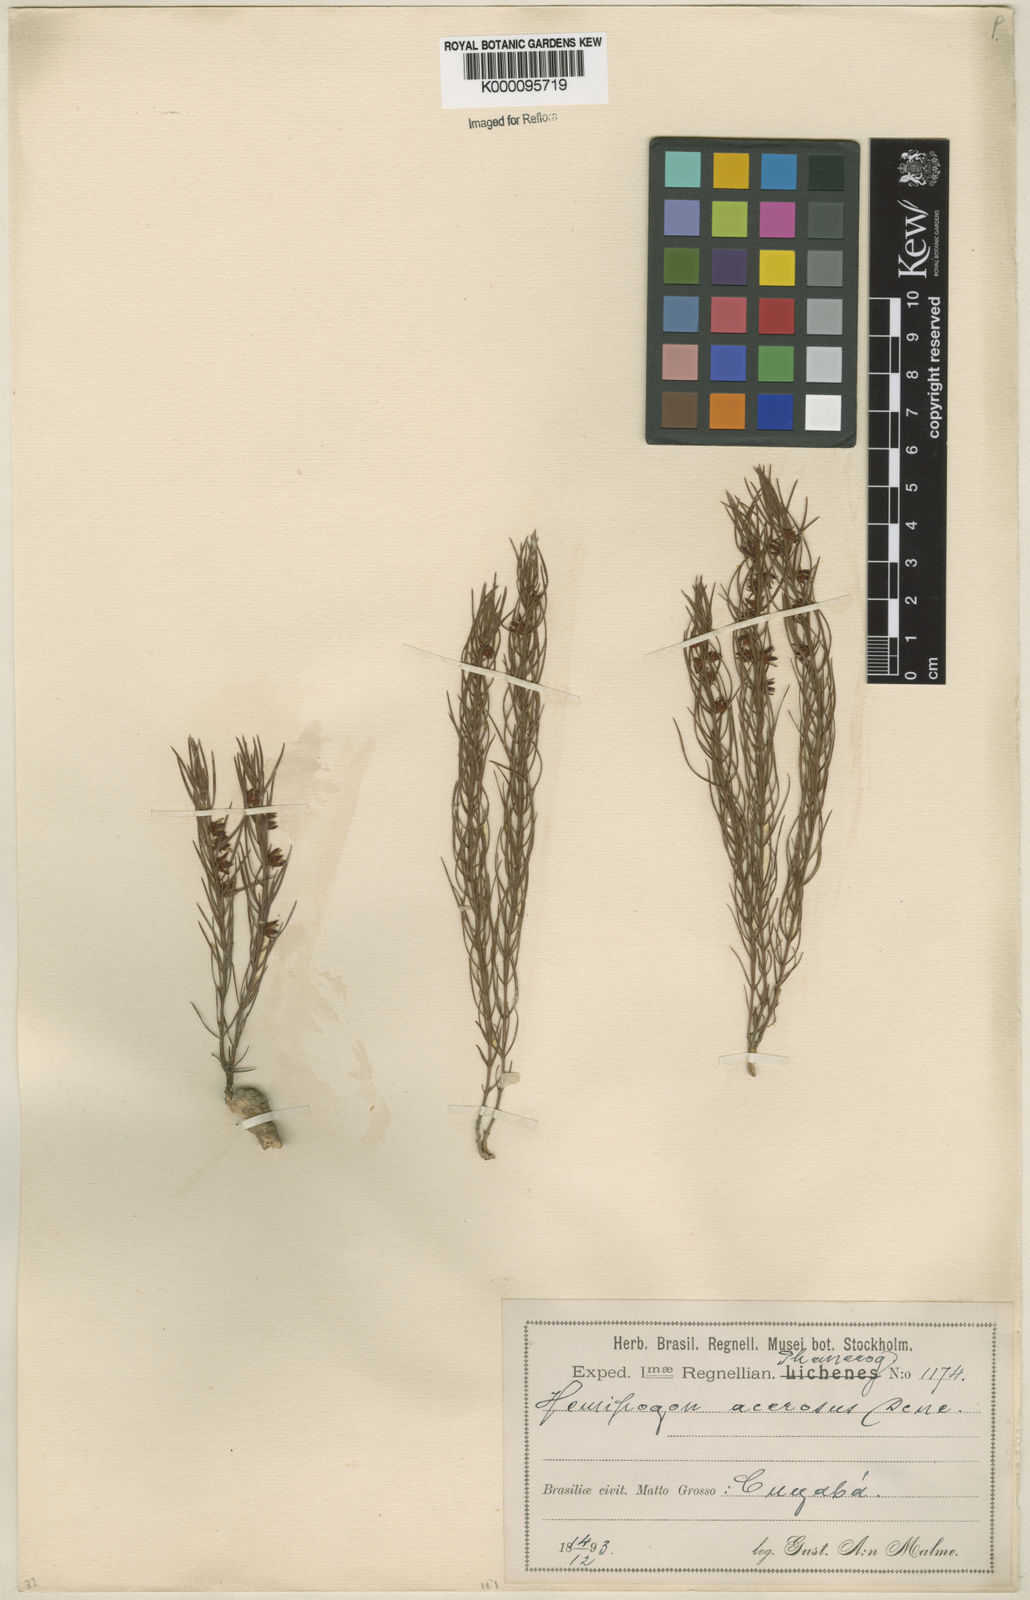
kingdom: Plantae
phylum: Tracheophyta
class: Magnoliopsida
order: Gentianales
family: Apocynaceae
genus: Hemipogon
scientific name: Hemipogon acerosus
